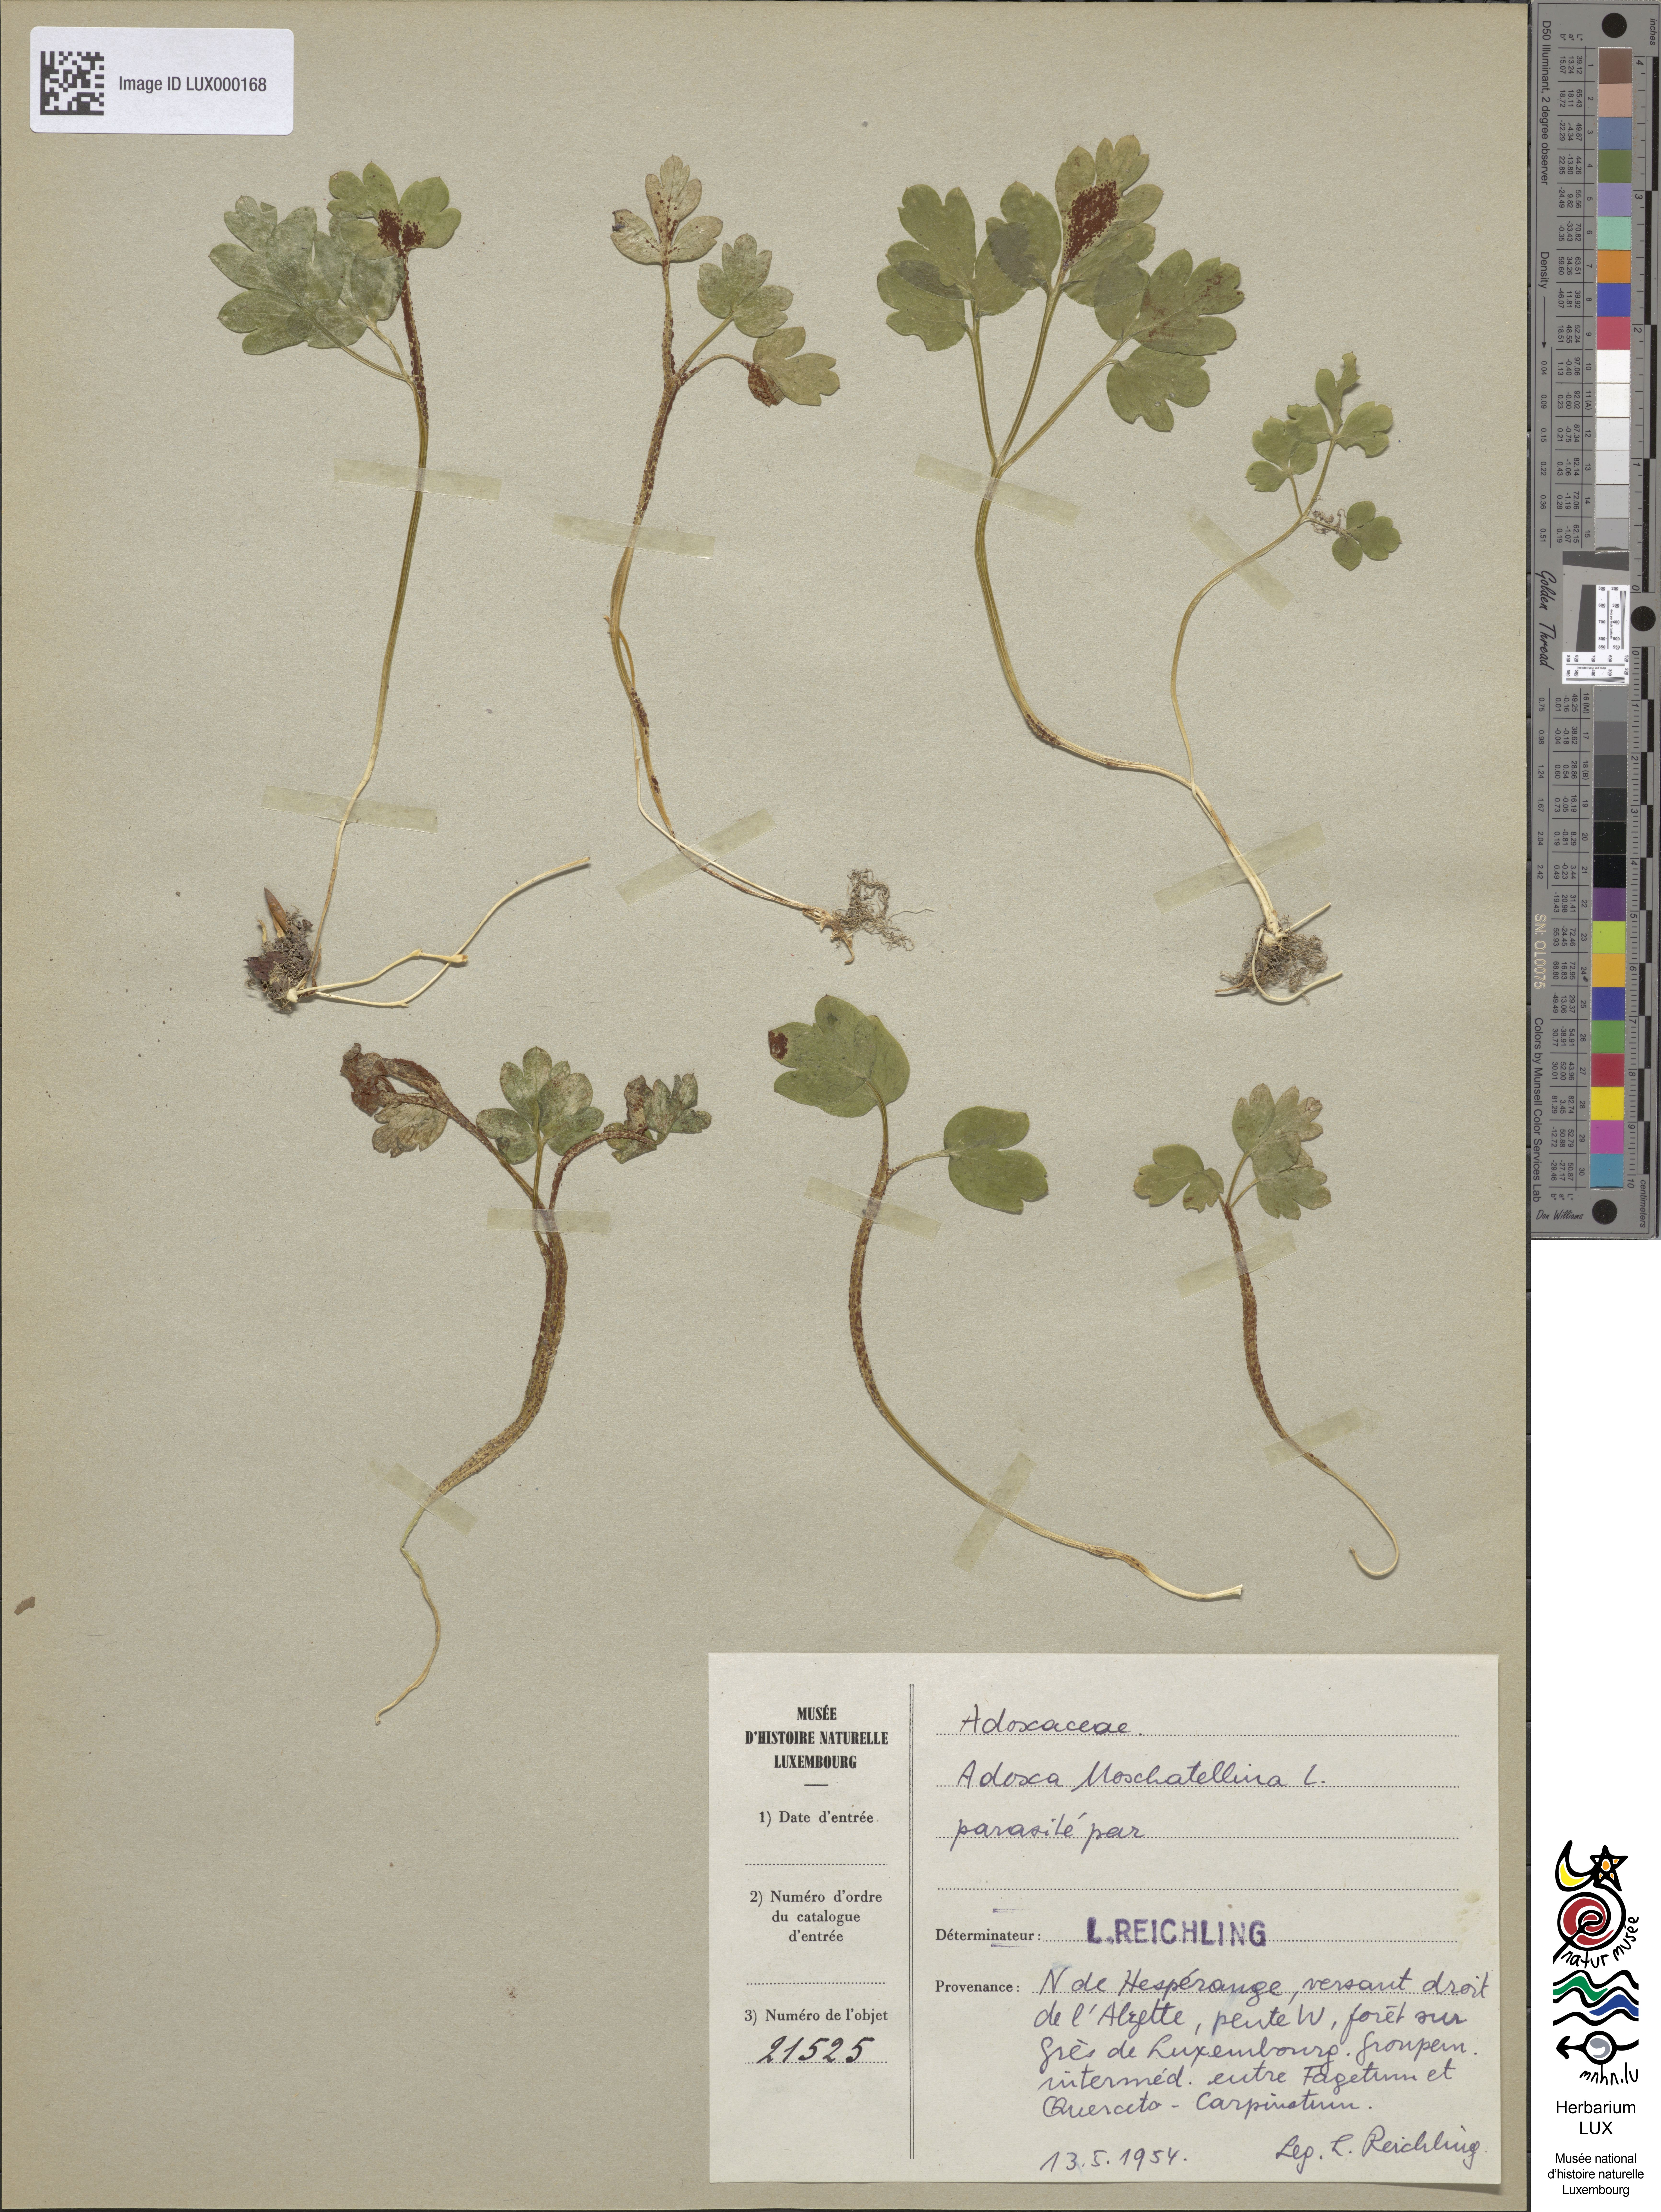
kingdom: Plantae
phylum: Tracheophyta
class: Magnoliopsida
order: Dipsacales
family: Viburnaceae
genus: Adoxa
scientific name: Adoxa moschatellina
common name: Moschatel
